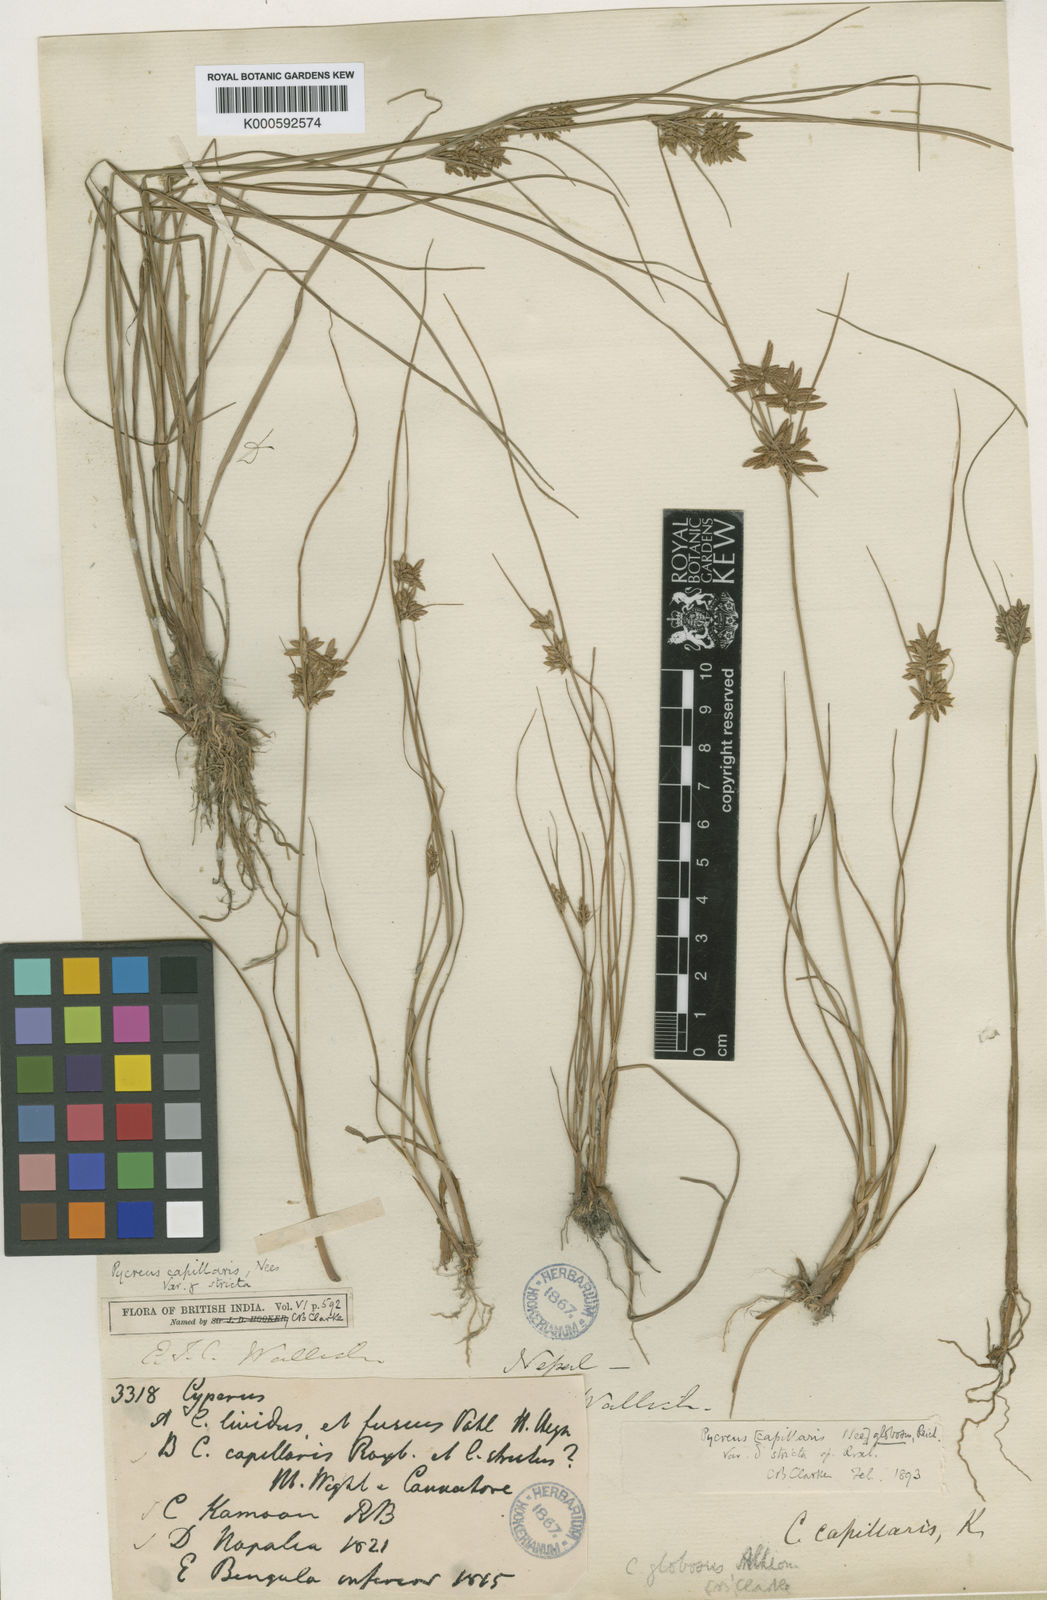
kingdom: Plantae
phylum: Tracheophyta
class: Liliopsida
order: Poales
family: Cyperaceae
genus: Cyperus
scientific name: Cyperus flavidus
